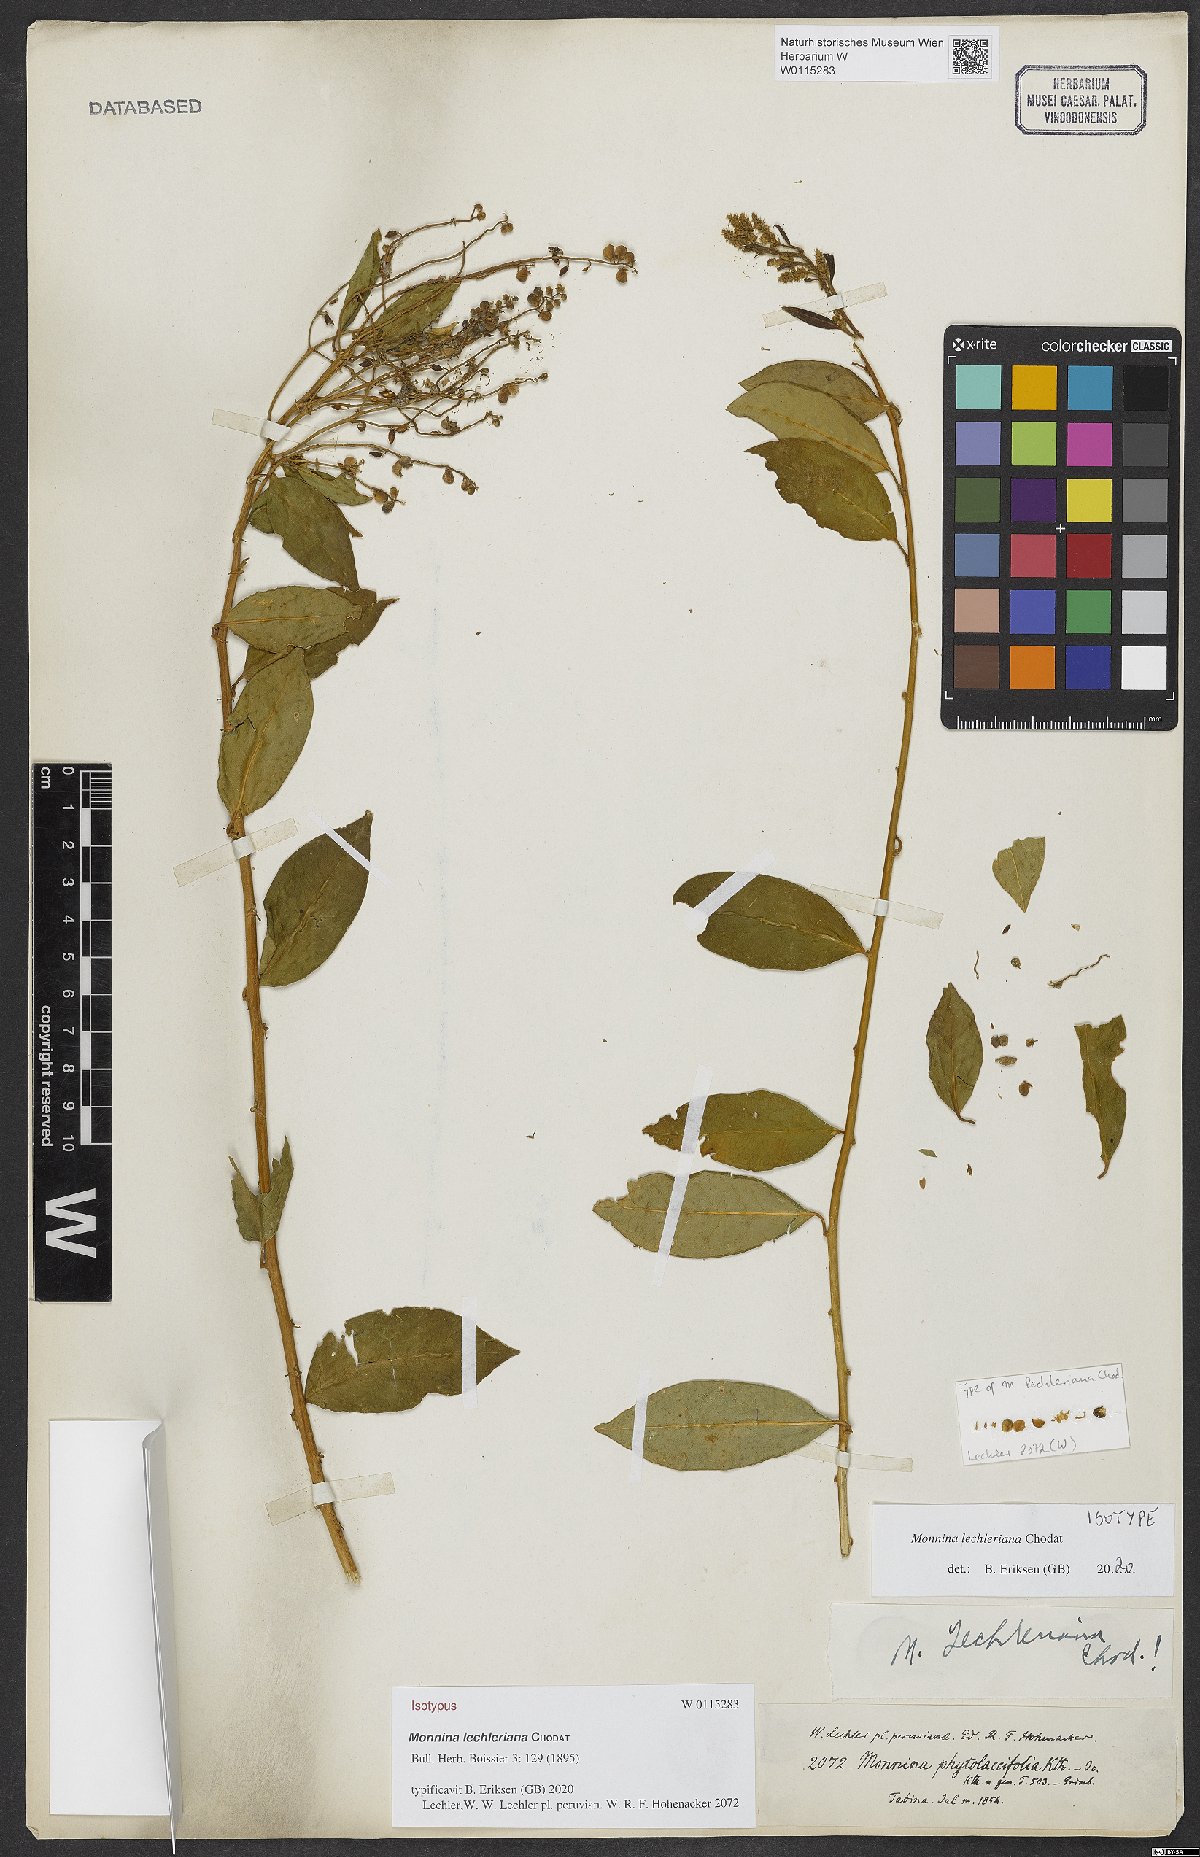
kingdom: Plantae
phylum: Tracheophyta
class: Magnoliopsida
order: Fabales
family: Polygalaceae
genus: Monnina
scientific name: Monnina lechleriana
